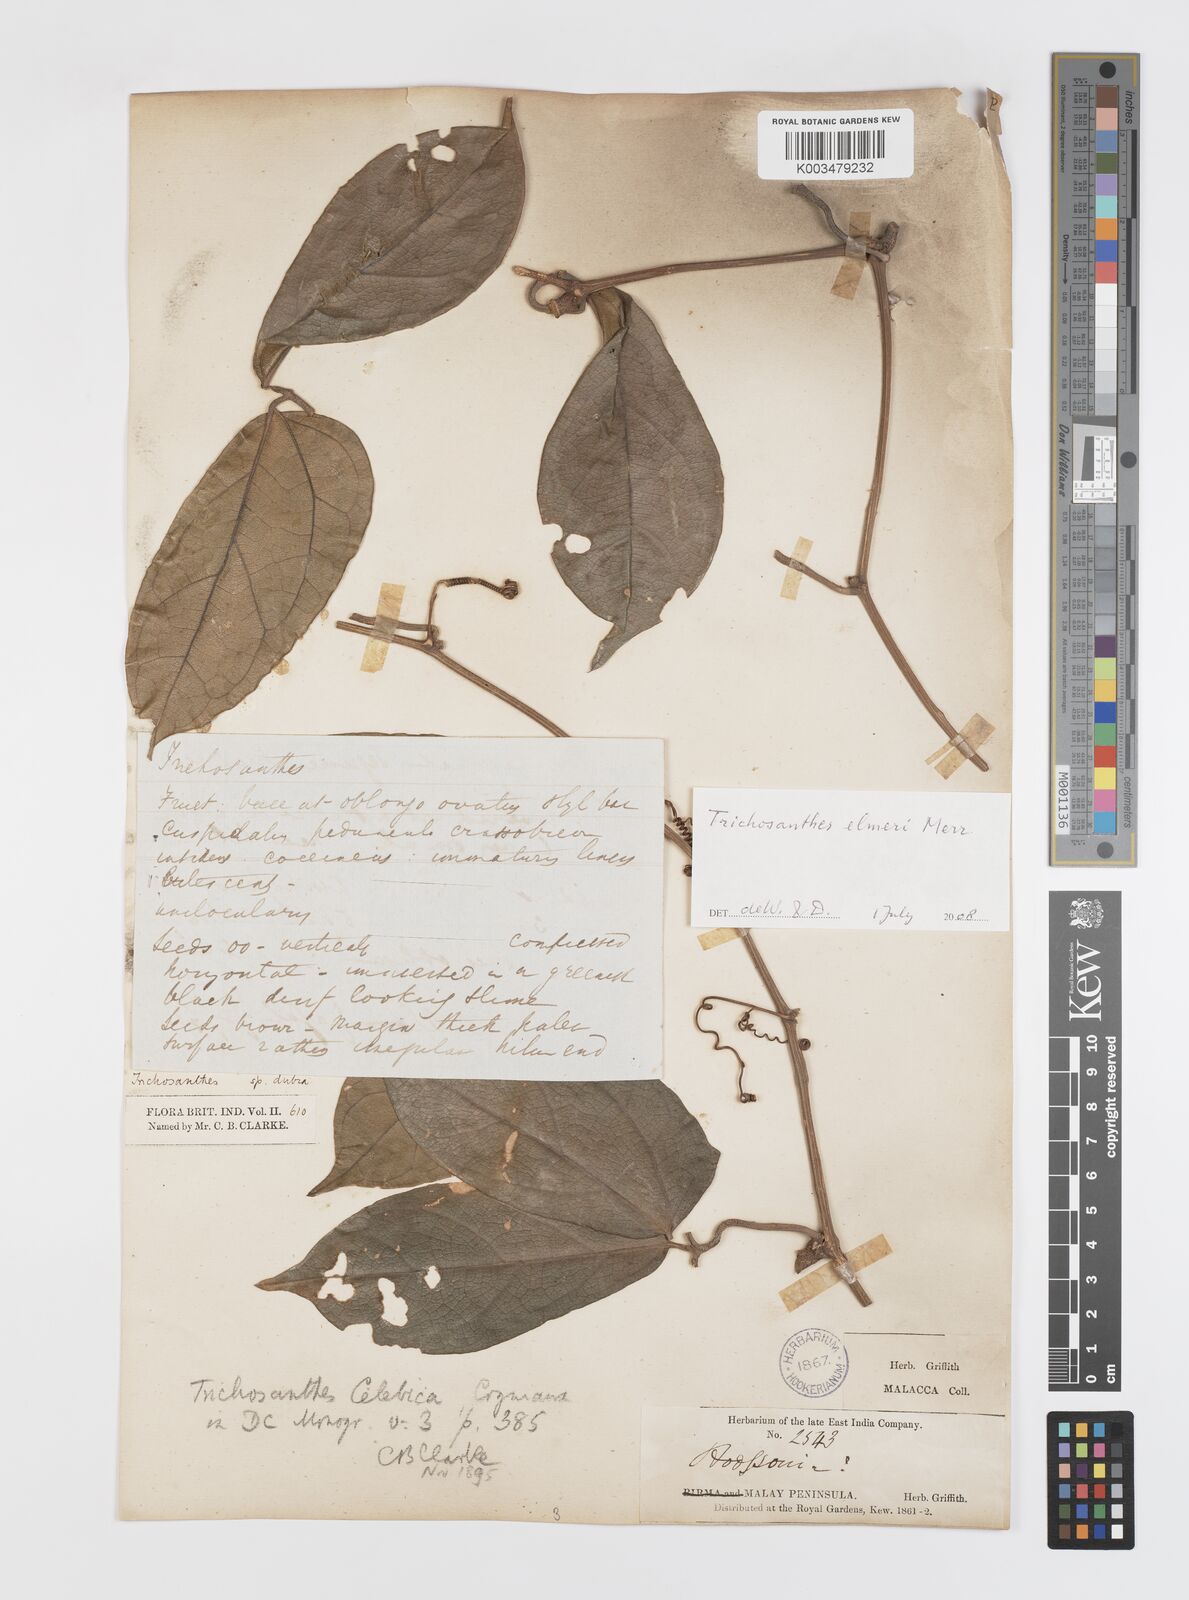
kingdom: Plantae
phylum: Tracheophyta
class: Magnoliopsida
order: Cucurbitales
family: Cucurbitaceae
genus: Trichosanthes
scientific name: Trichosanthes elmeri
